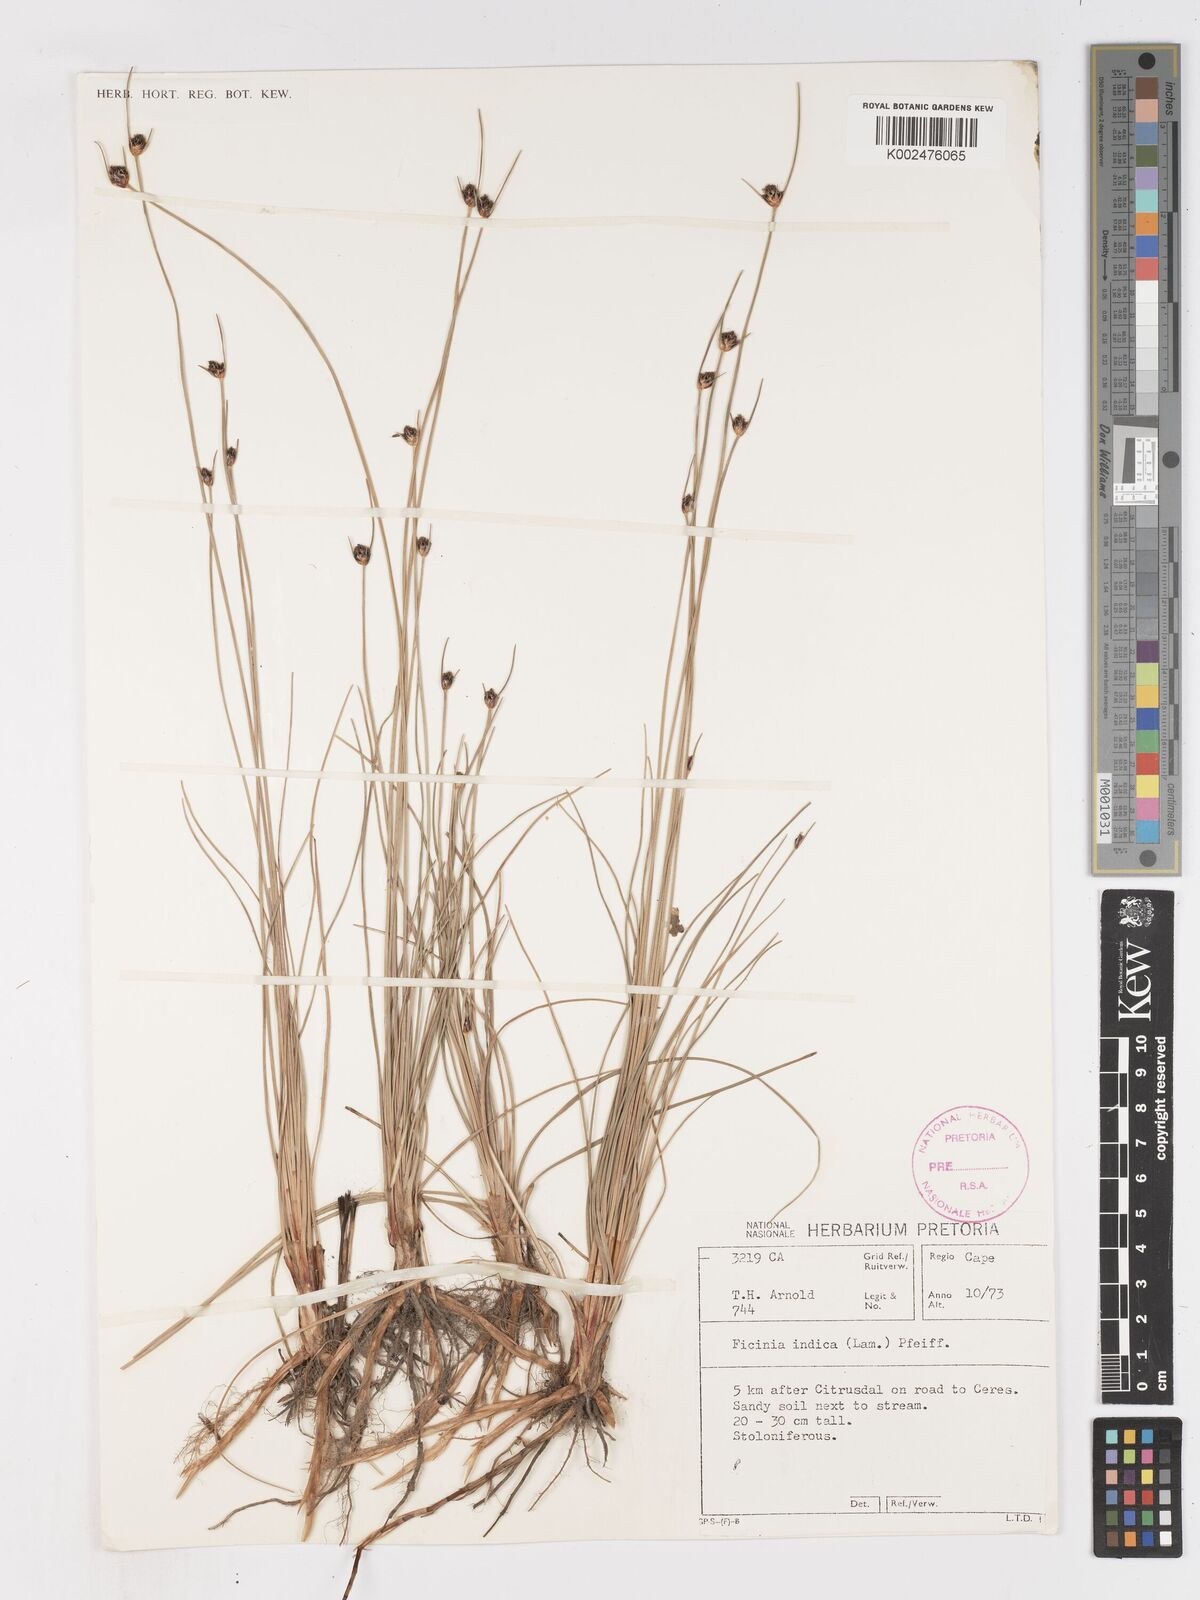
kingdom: Plantae
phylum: Tracheophyta
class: Liliopsida
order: Poales
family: Cyperaceae
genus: Ficinia
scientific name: Ficinia indica
